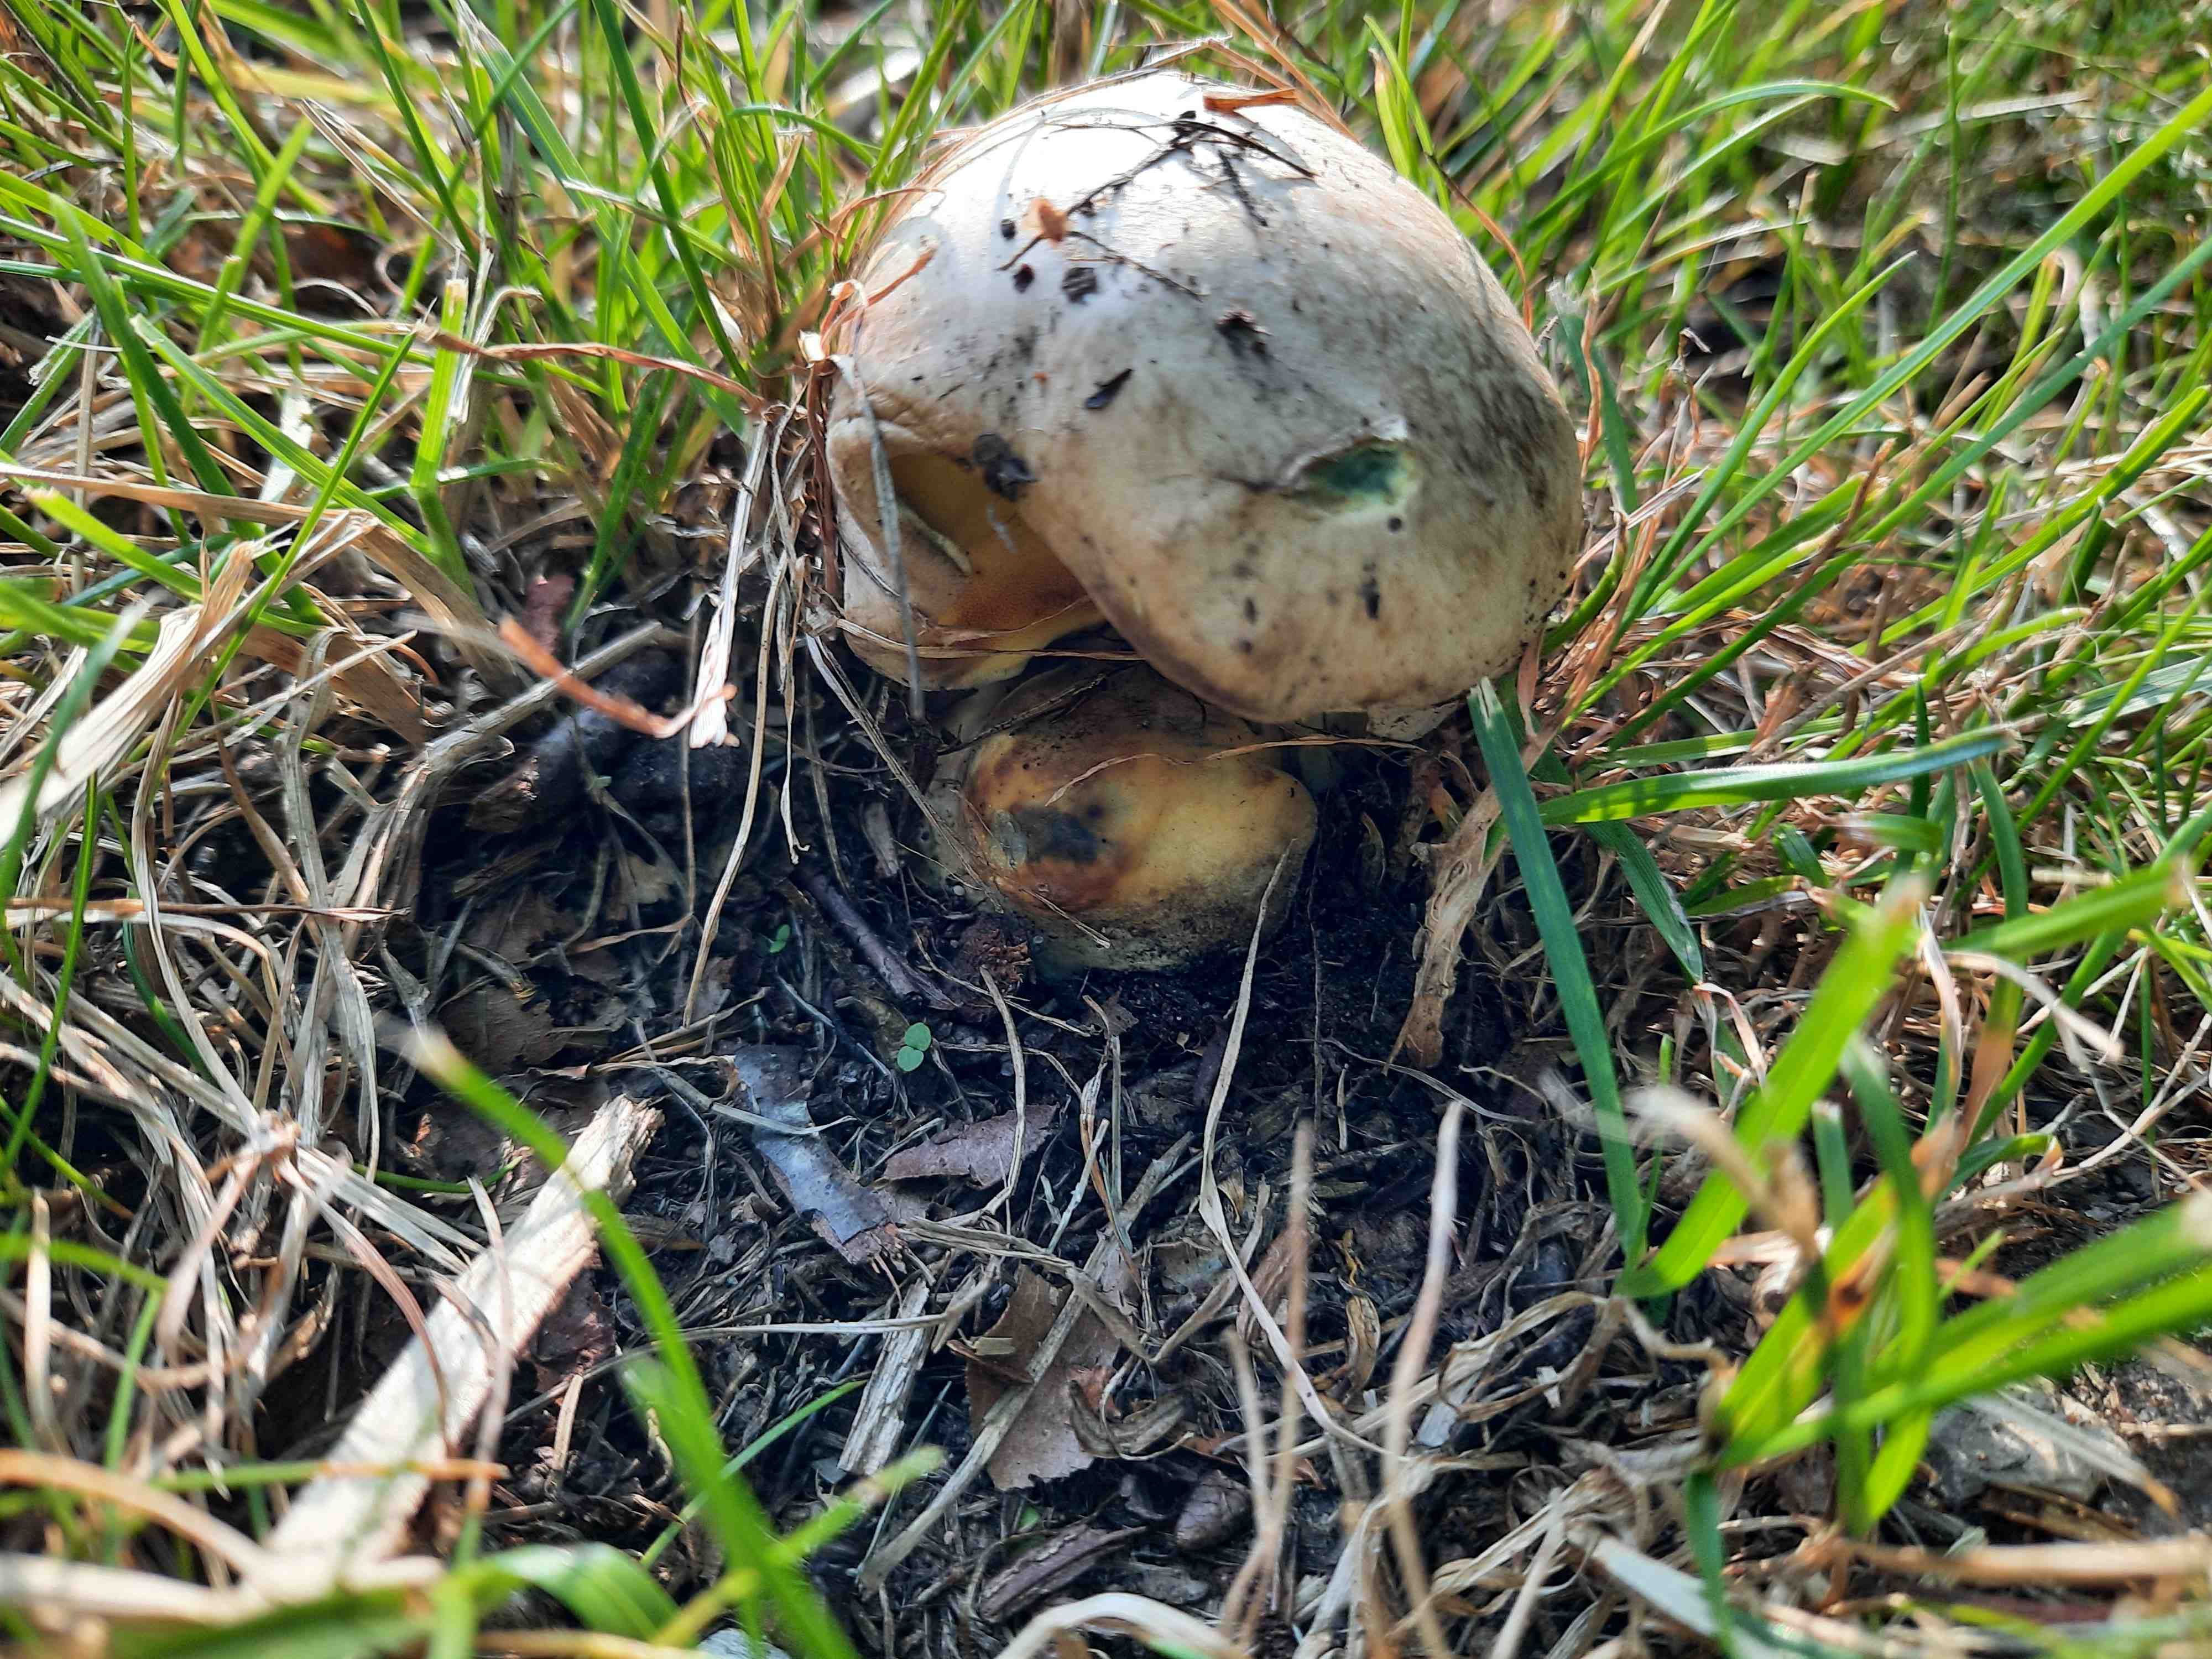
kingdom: Fungi
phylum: Basidiomycota
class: Agaricomycetes
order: Boletales
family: Boletaceae
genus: Caloboletus
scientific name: Caloboletus radicans
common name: rod-rørhat
